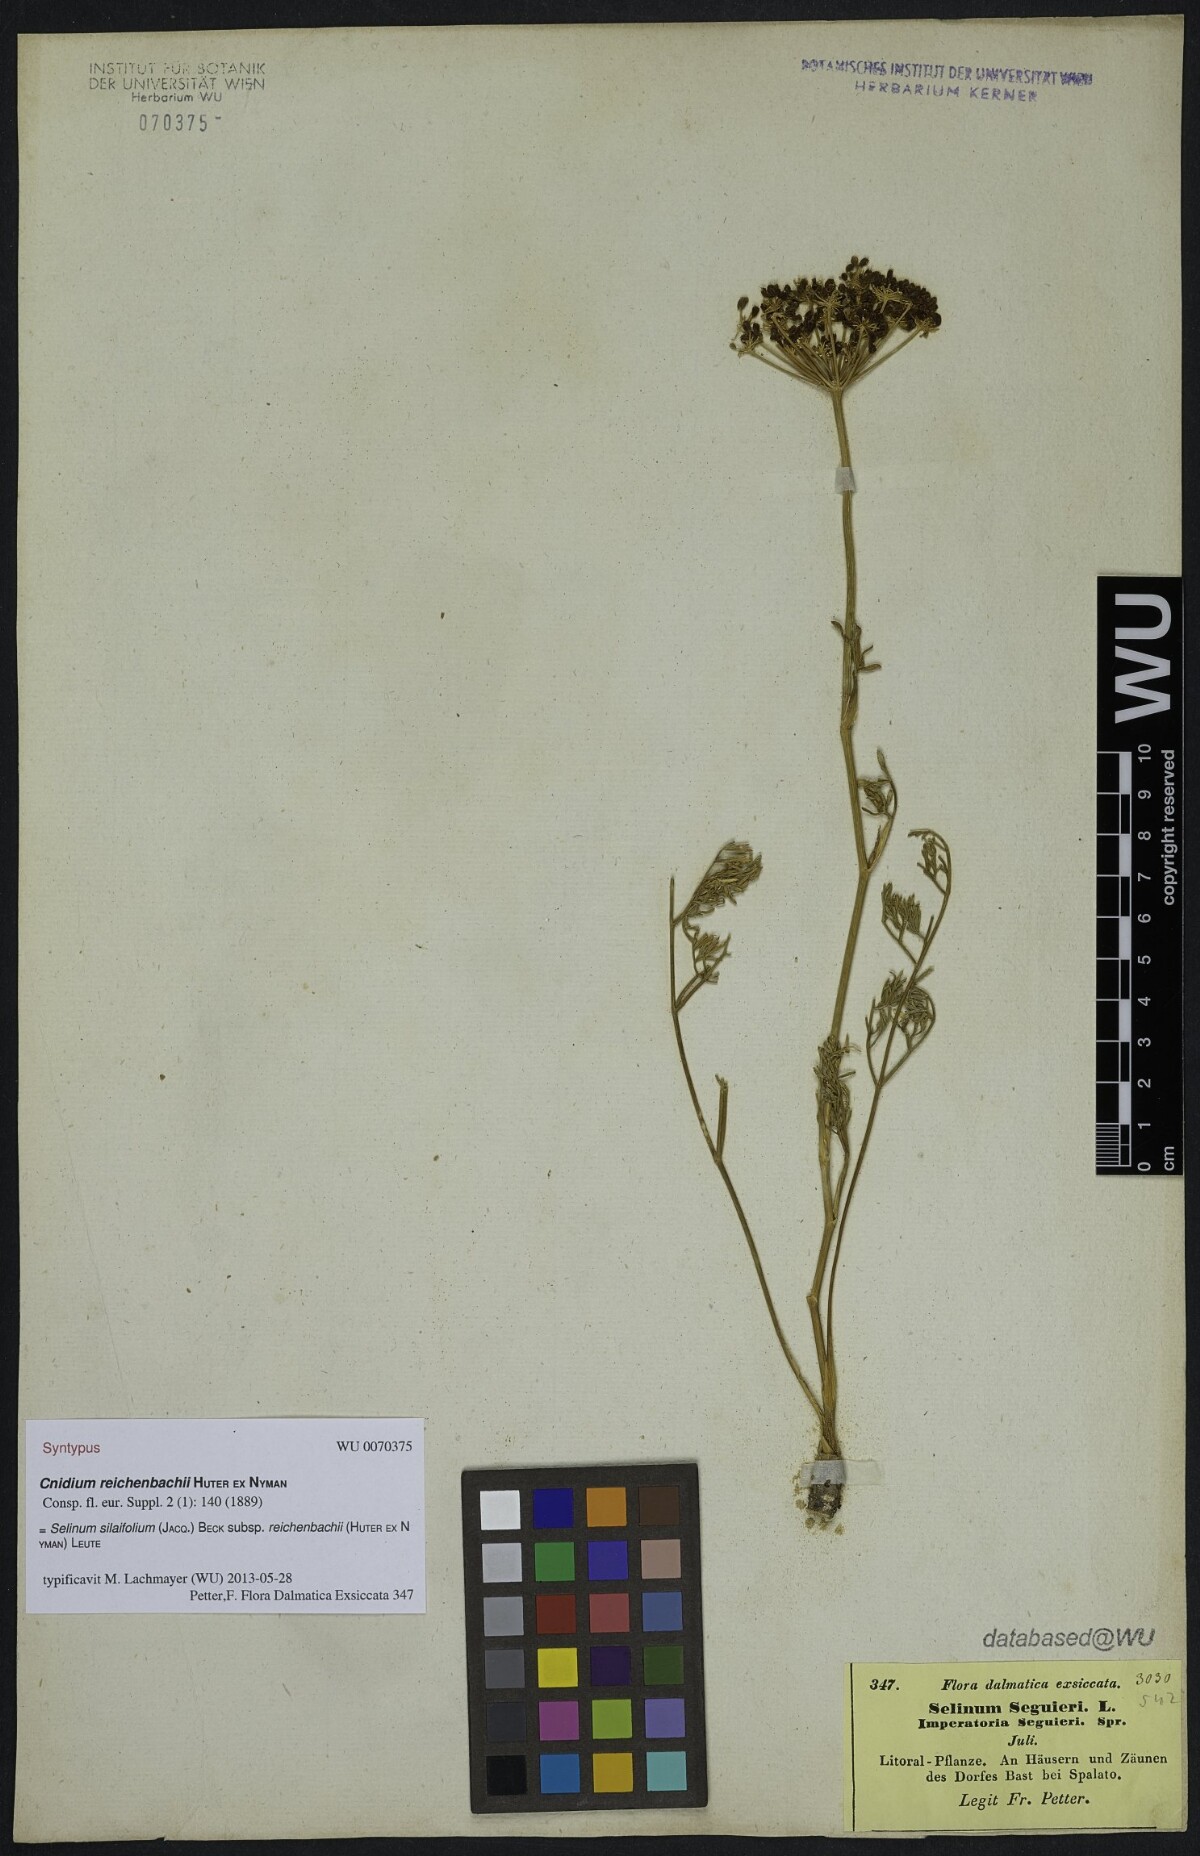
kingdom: Plantae
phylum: Tracheophyta
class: Magnoliopsida
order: Apiales
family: Apiaceae
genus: Cnidium
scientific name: Cnidium reichenbachii
